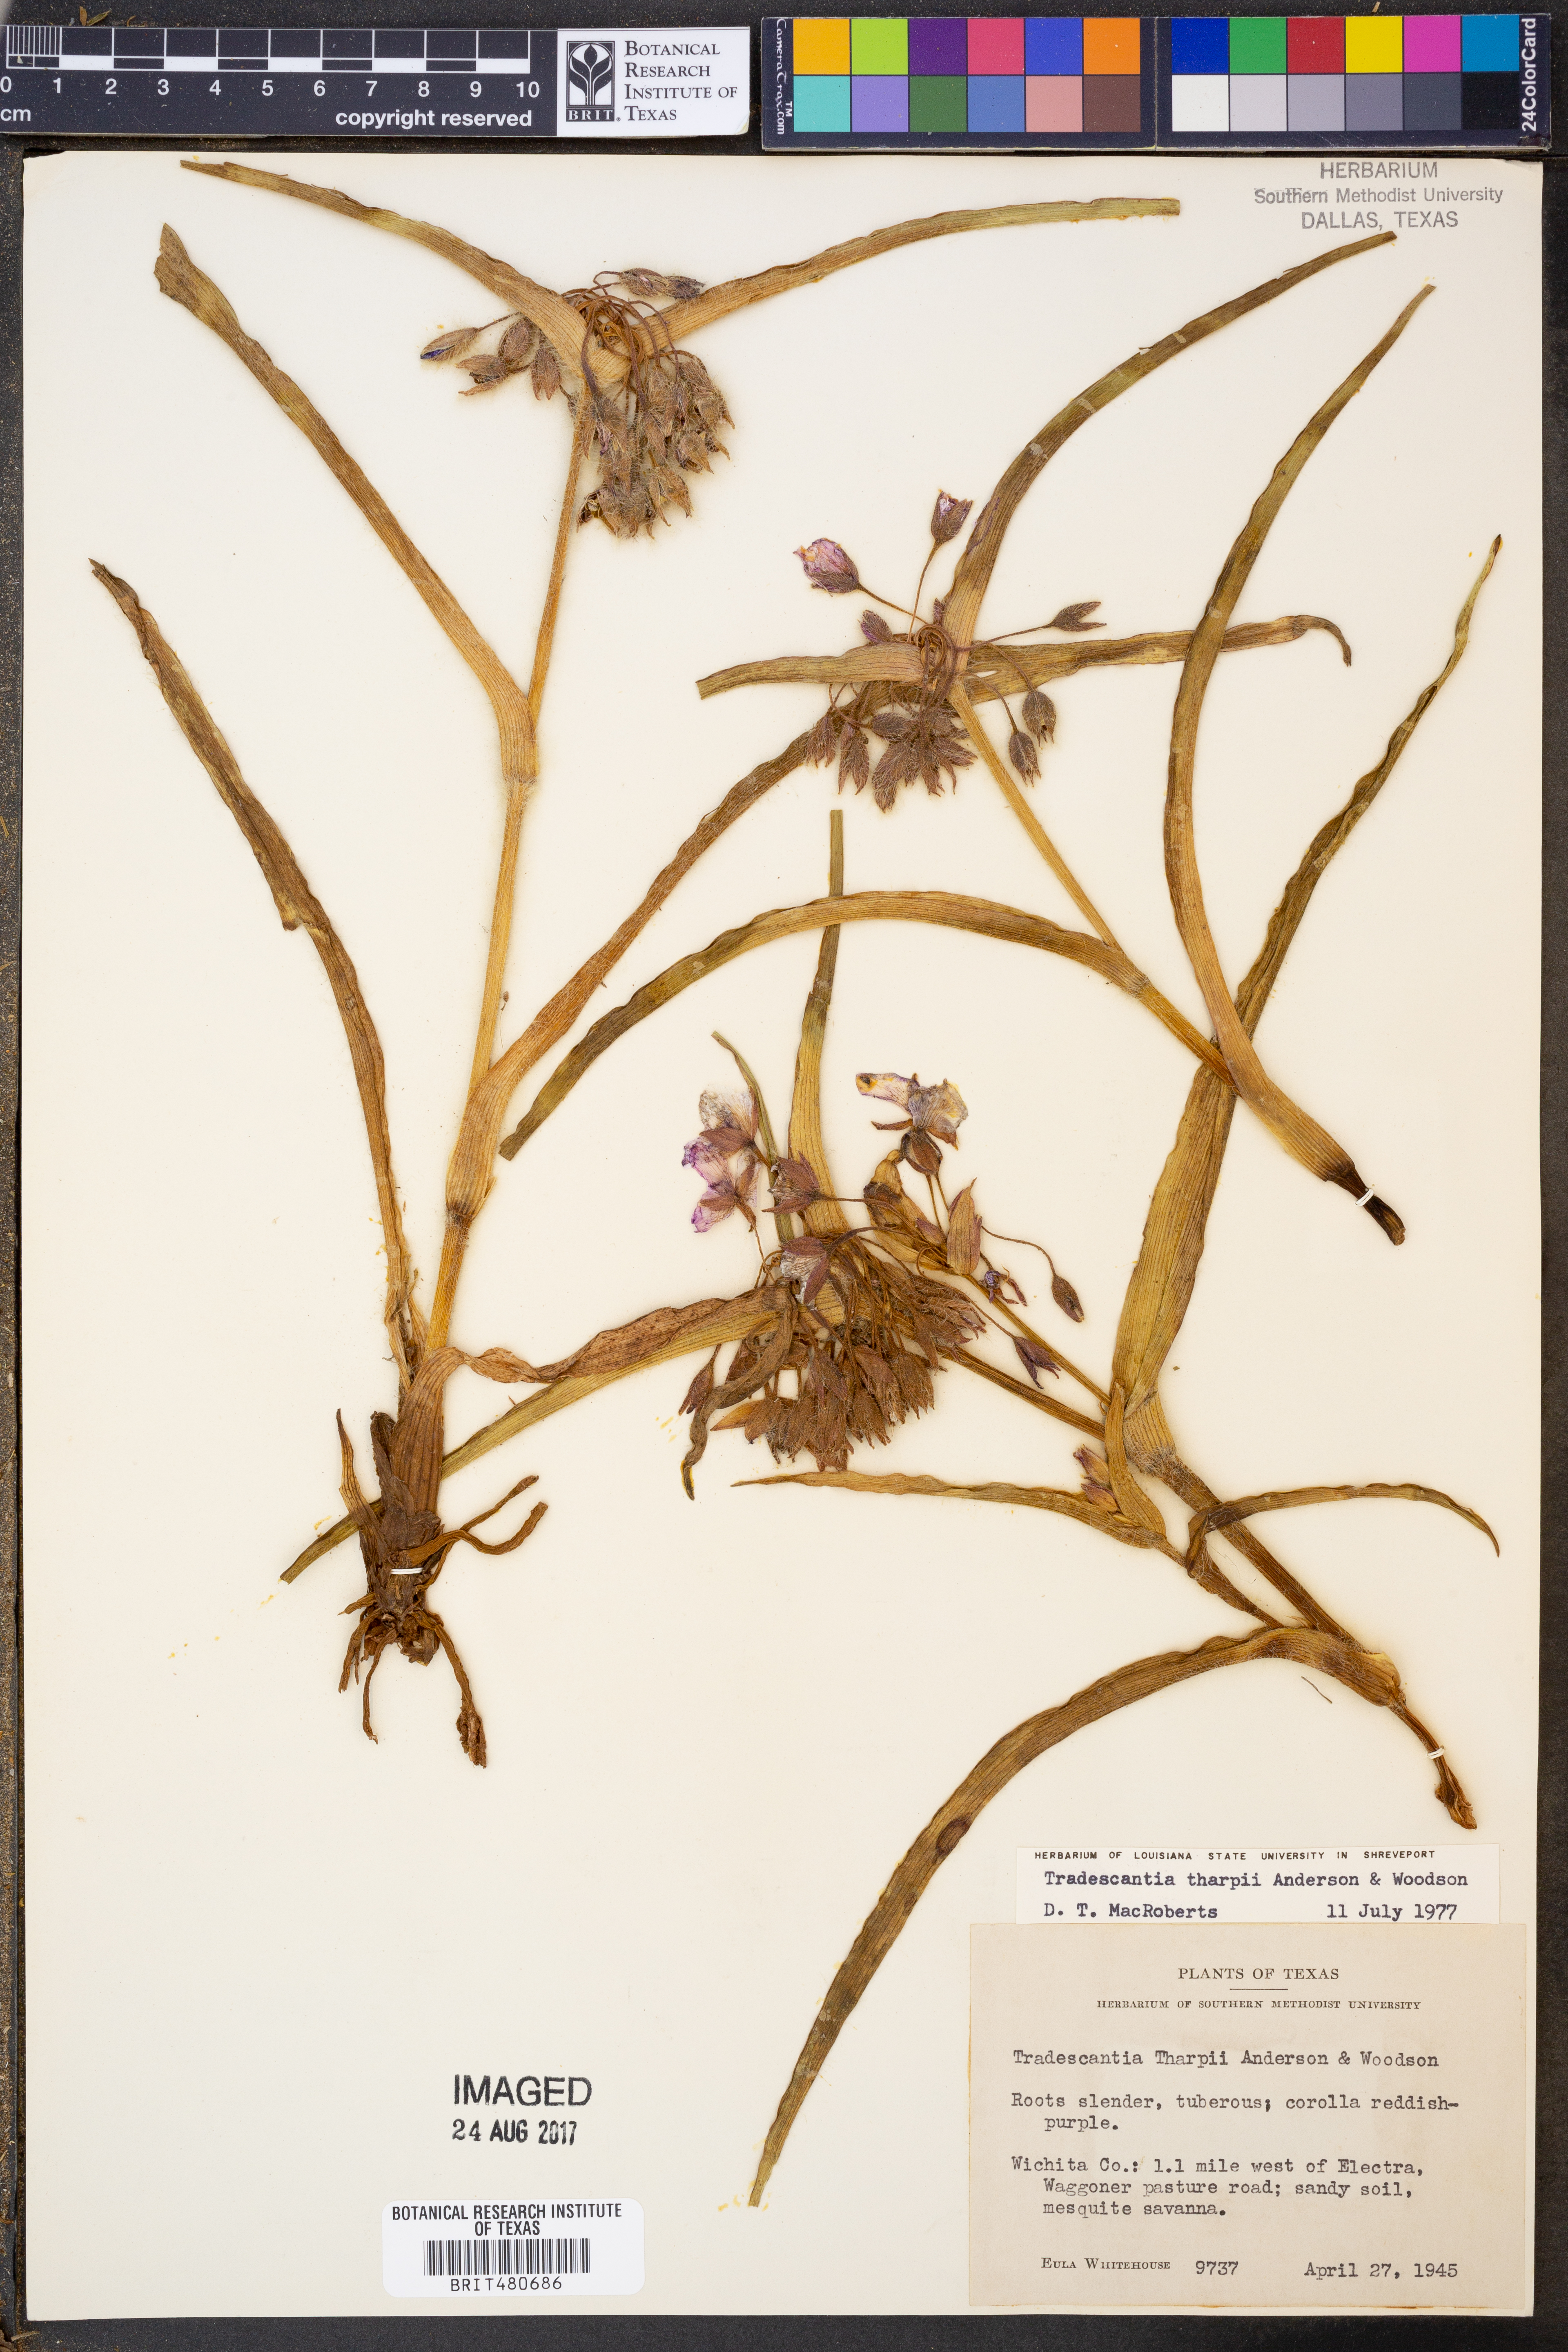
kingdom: Plantae
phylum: Tracheophyta
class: Liliopsida
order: Commelinales
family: Commelinaceae
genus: Tradescantia
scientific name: Tradescantia tharpii
